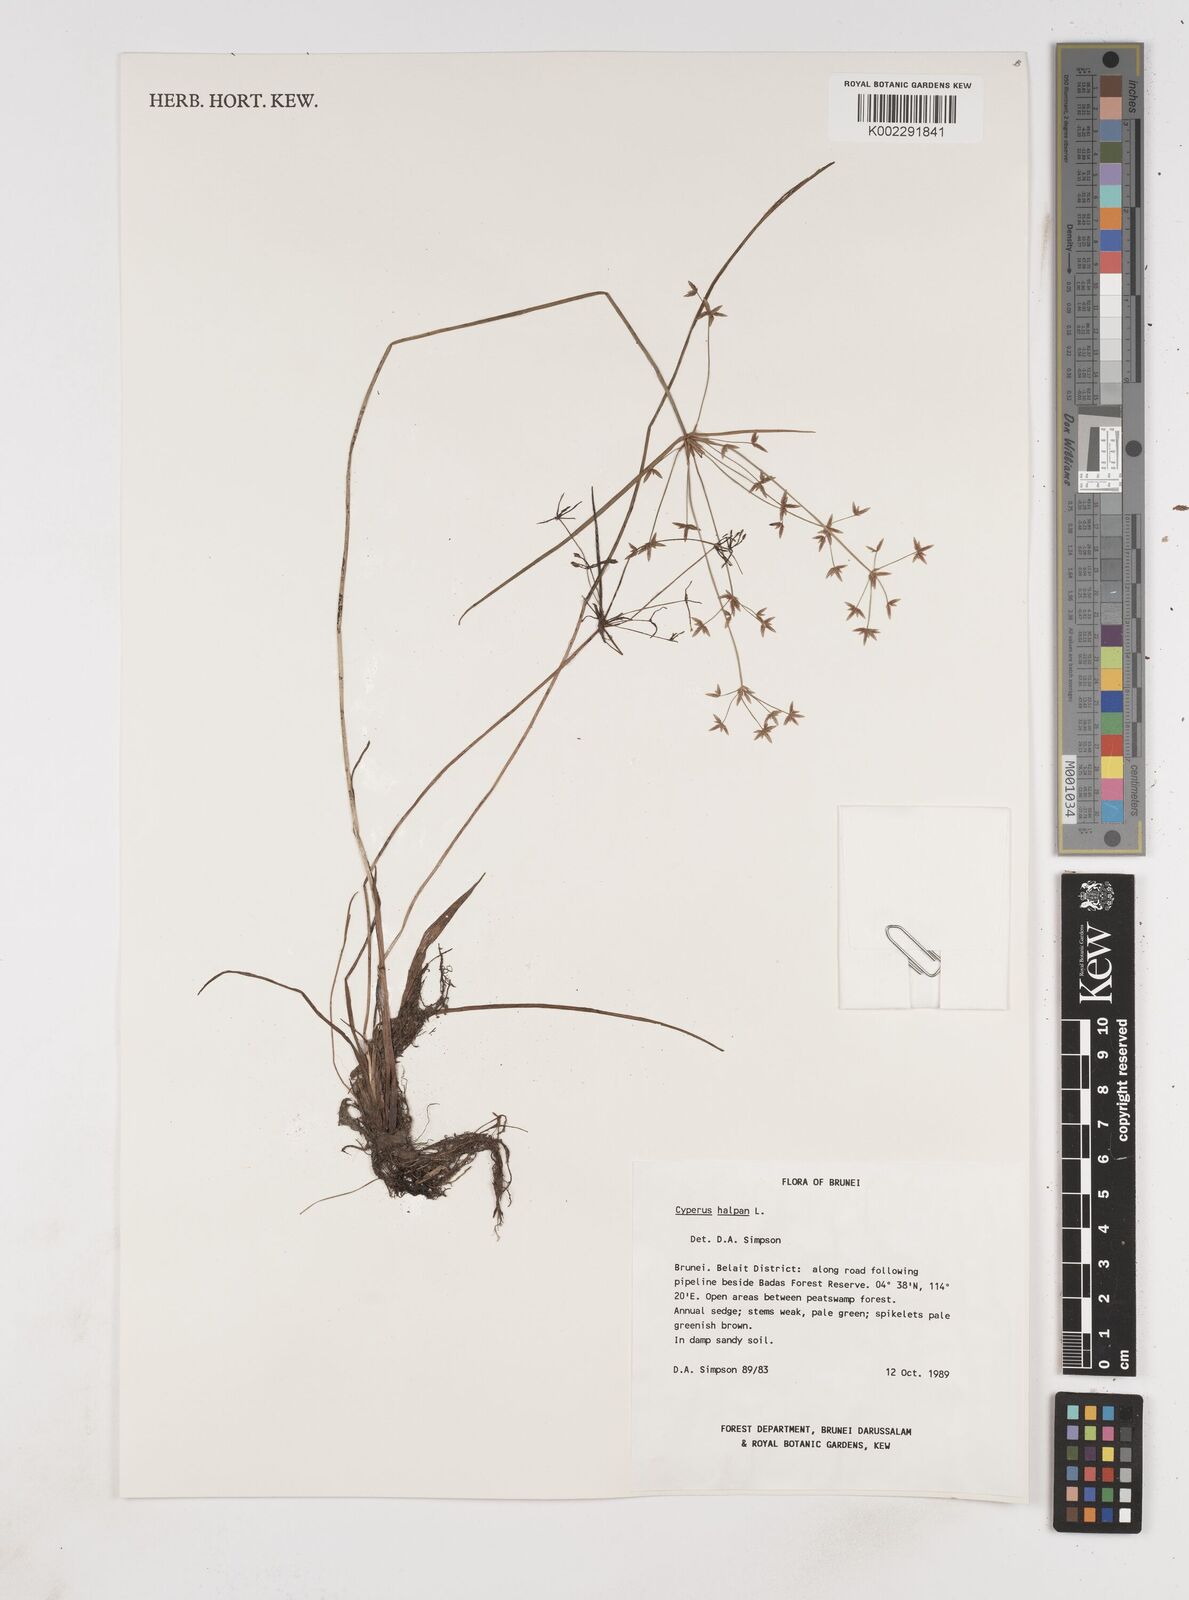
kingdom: Plantae
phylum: Tracheophyta
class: Liliopsida
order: Poales
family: Cyperaceae
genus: Cyperus
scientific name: Cyperus haspan
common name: Haspan flatsedge
